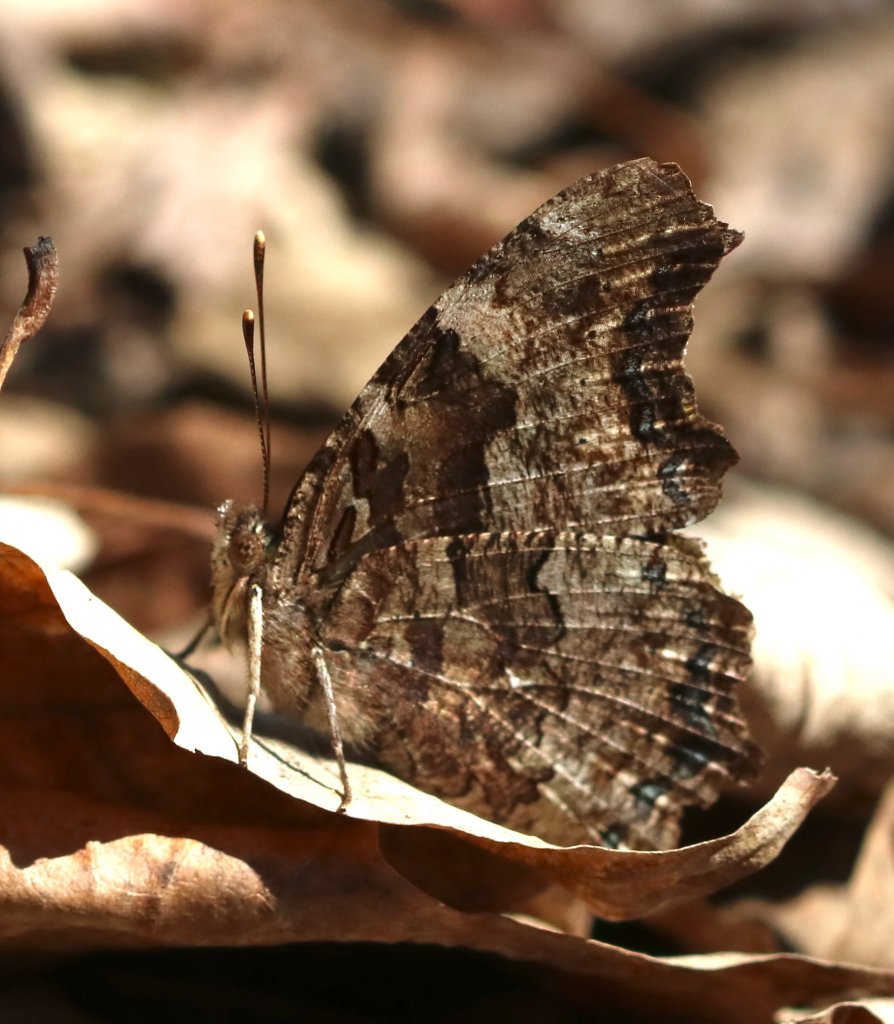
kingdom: Animalia
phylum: Arthropoda
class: Insecta
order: Lepidoptera
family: Nymphalidae
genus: Polygonia
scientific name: Polygonia vaualbum
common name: Compton Tortoiseshell
